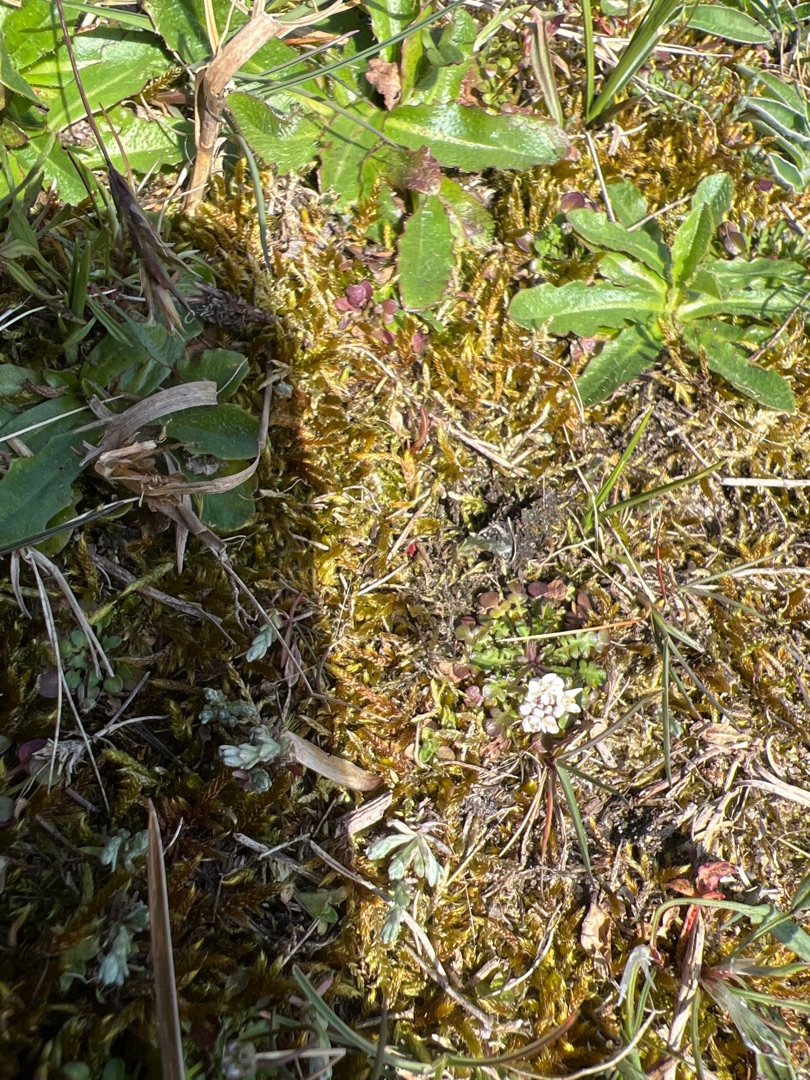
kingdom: Plantae
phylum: Tracheophyta
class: Magnoliopsida
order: Brassicales
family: Brassicaceae
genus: Teesdalia
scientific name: Teesdalia nudicaulis
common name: Flipkrave
